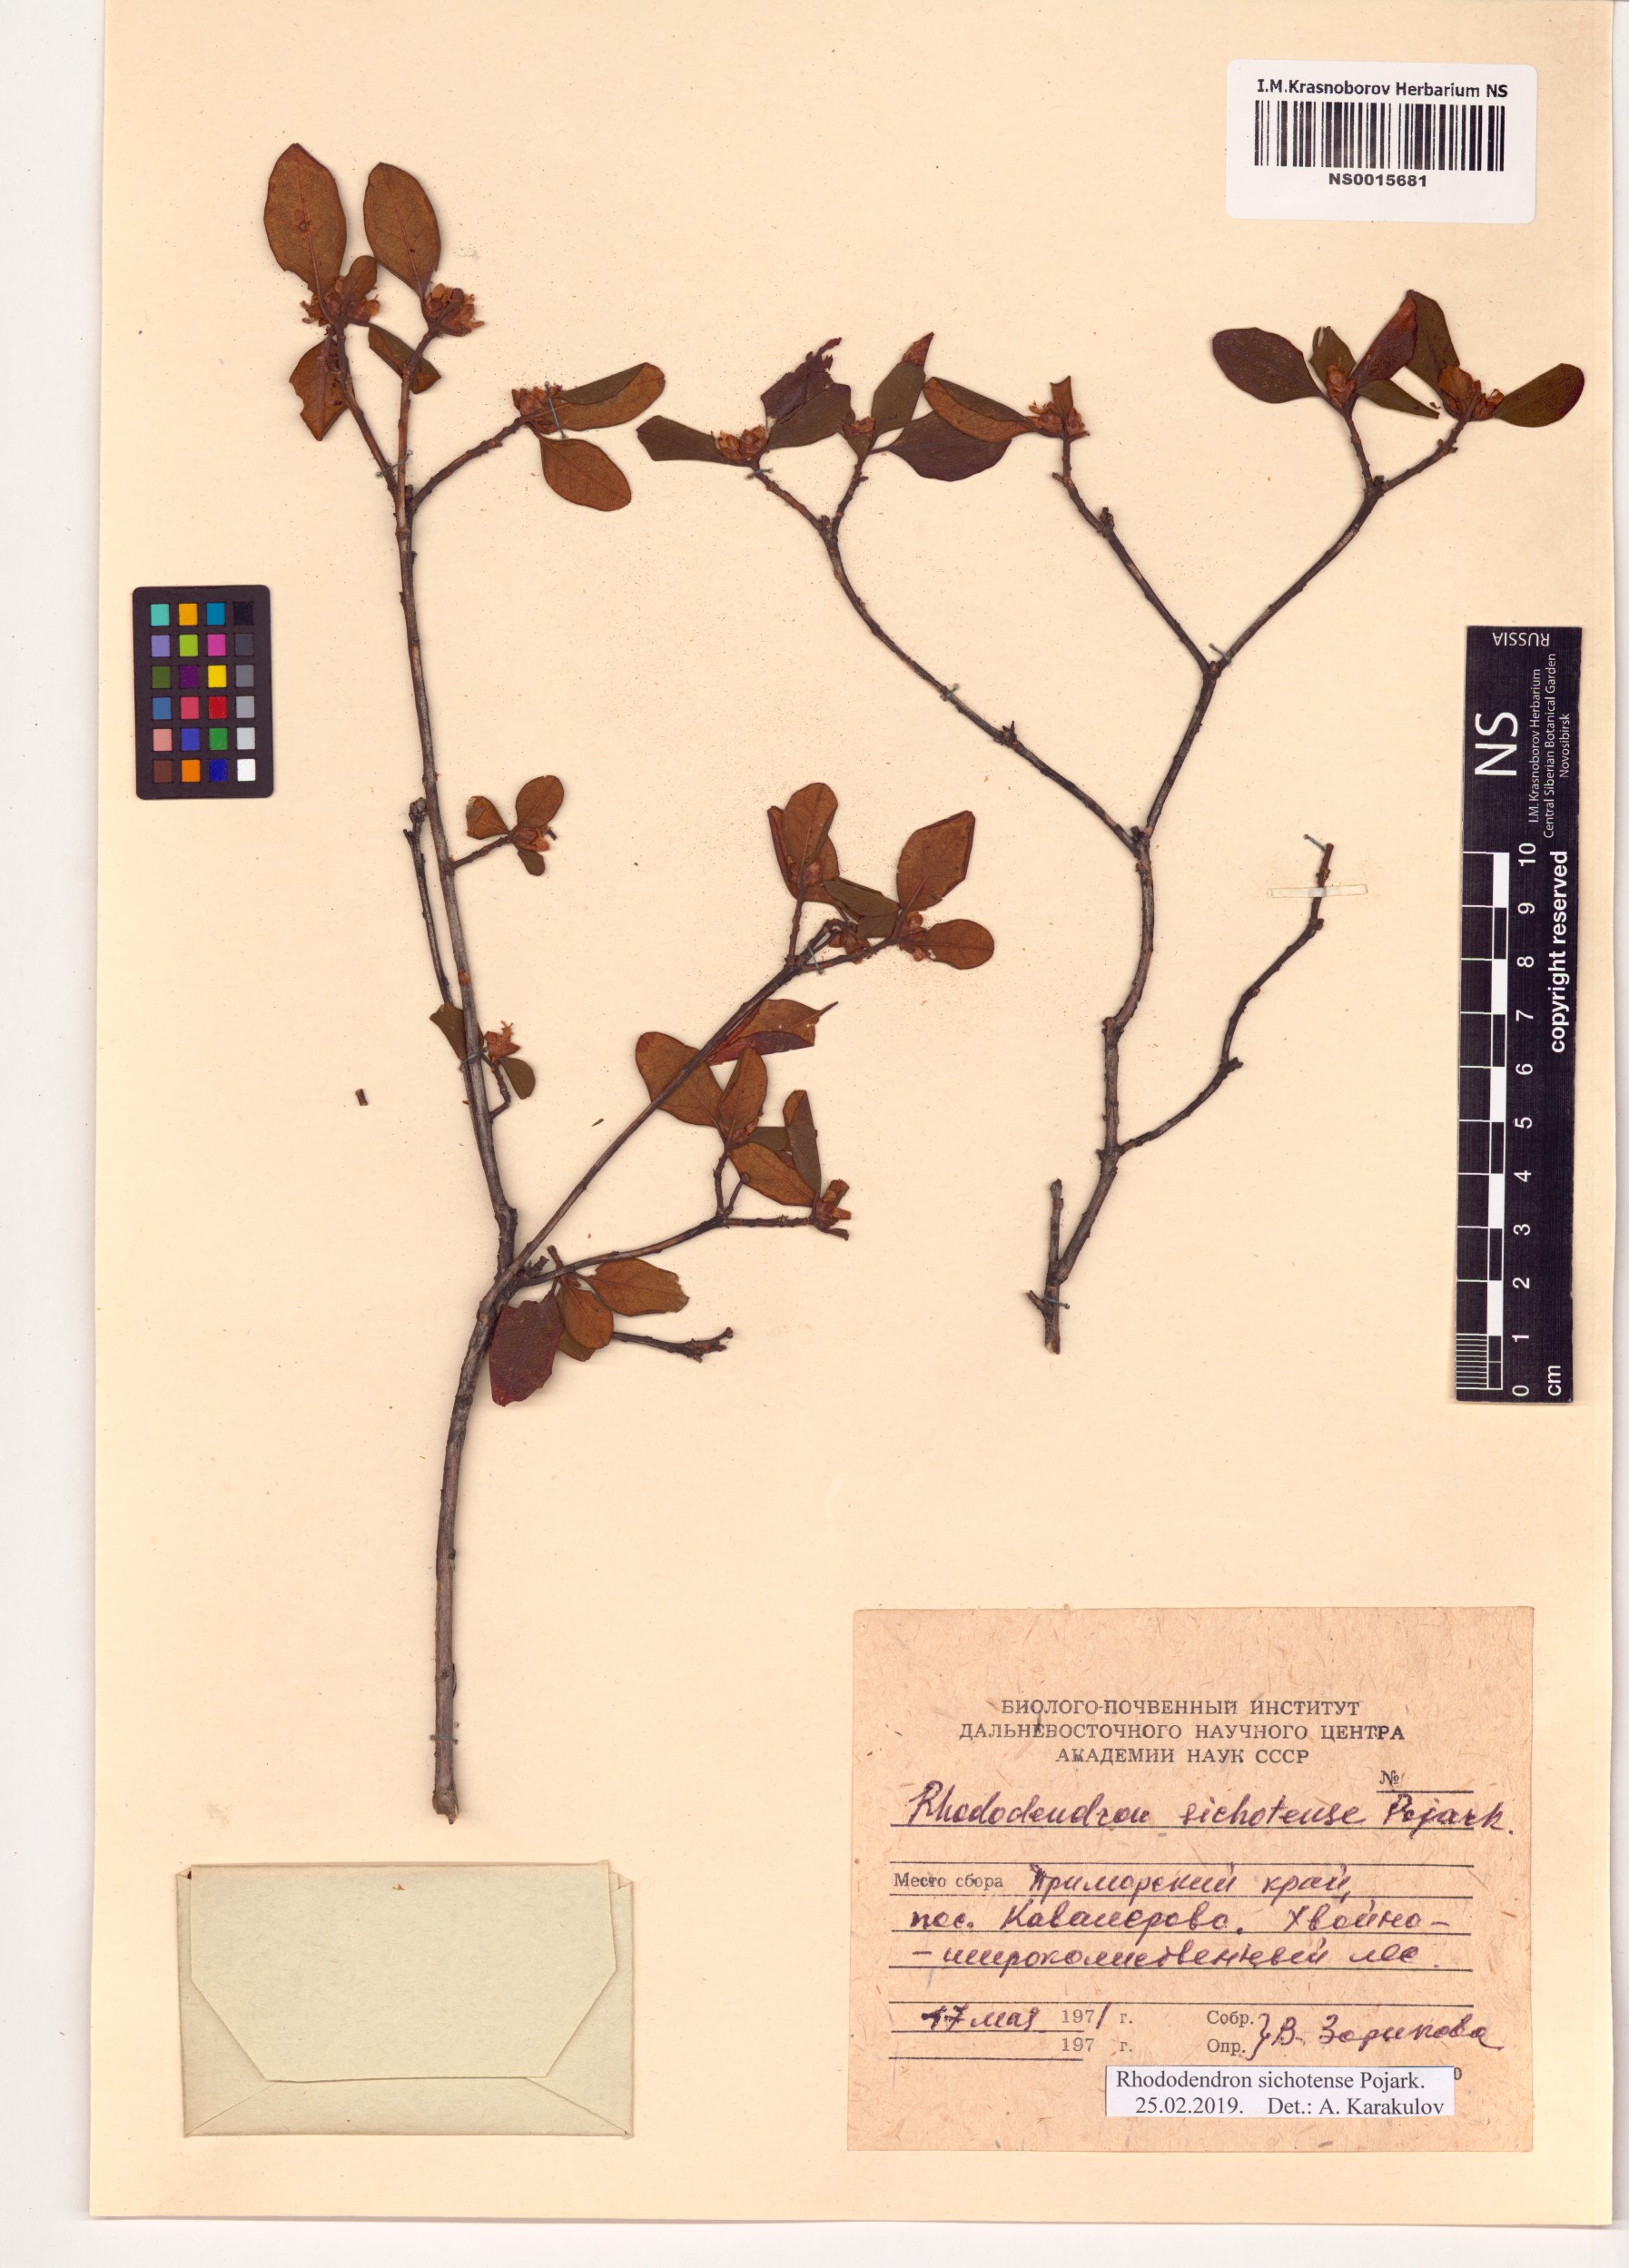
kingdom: Plantae
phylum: Tracheophyta
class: Magnoliopsida
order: Ericales
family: Ericaceae
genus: Rhododendron
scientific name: Rhododendron sichotense
